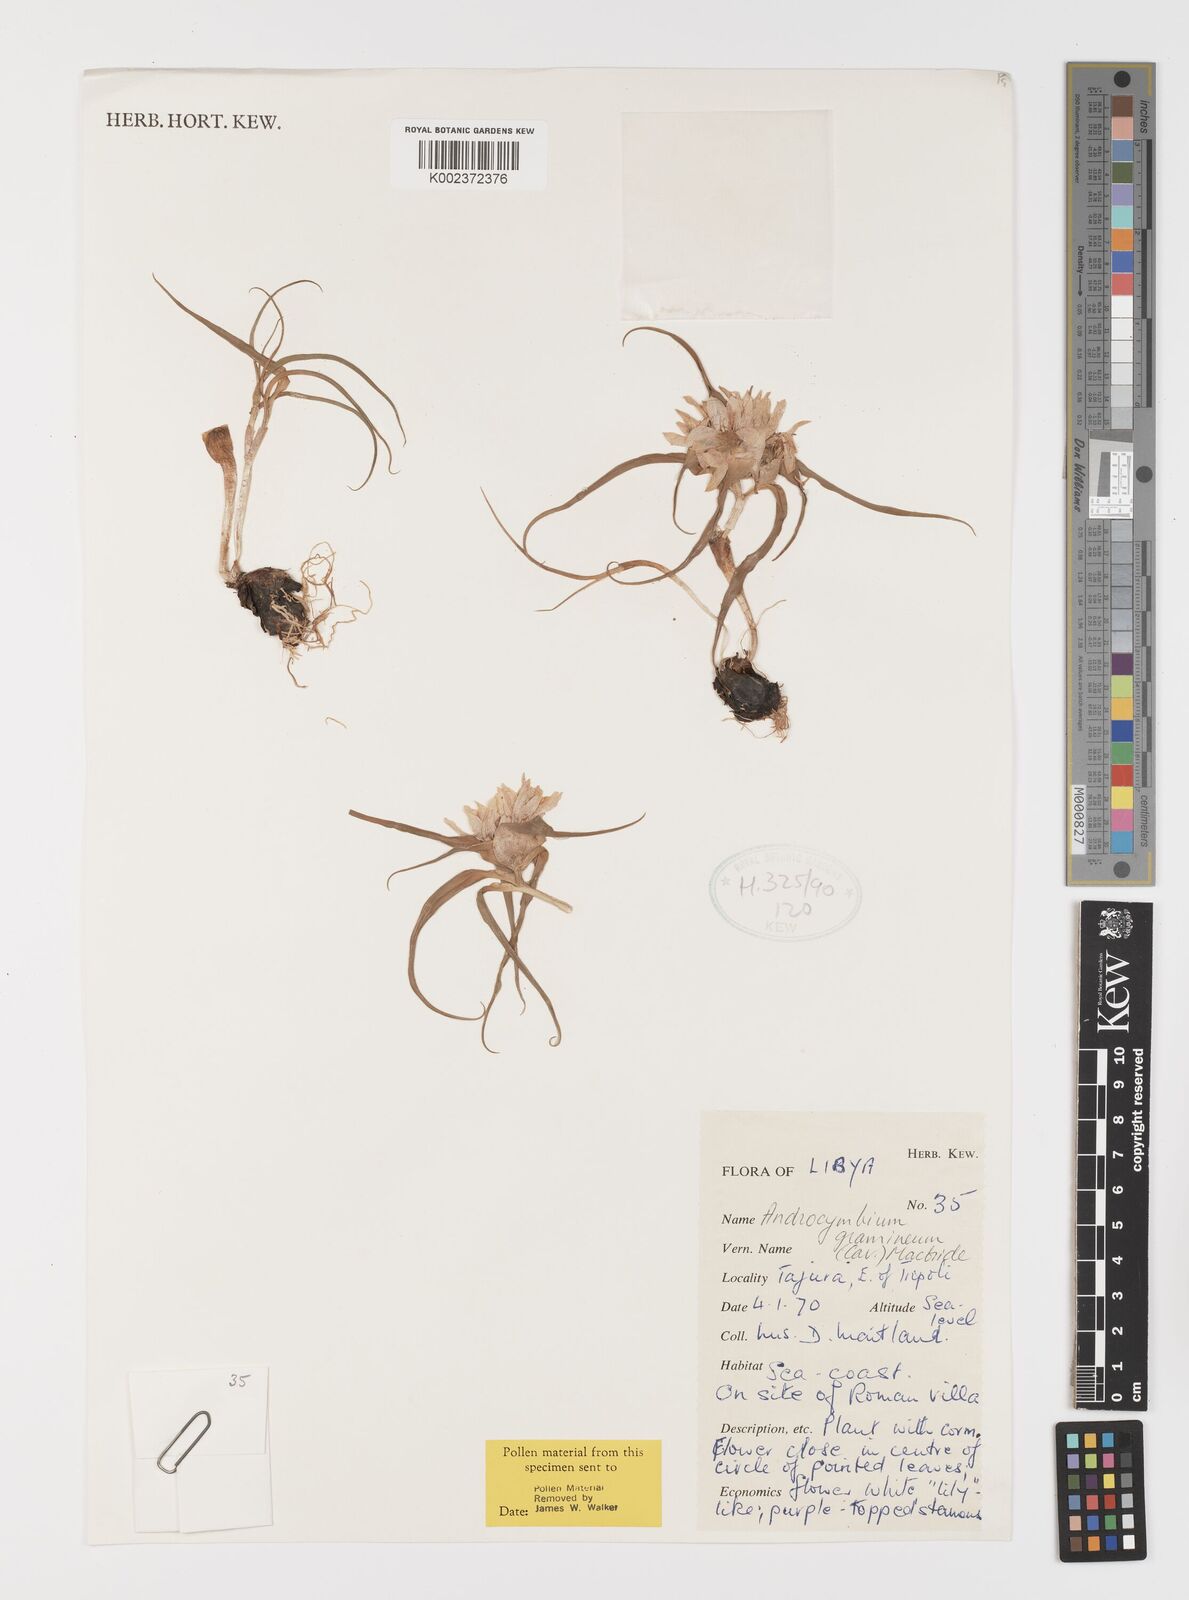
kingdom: Plantae
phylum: Tracheophyta
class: Liliopsida
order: Liliales
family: Colchicaceae
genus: Colchicum
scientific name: Colchicum gramineum
